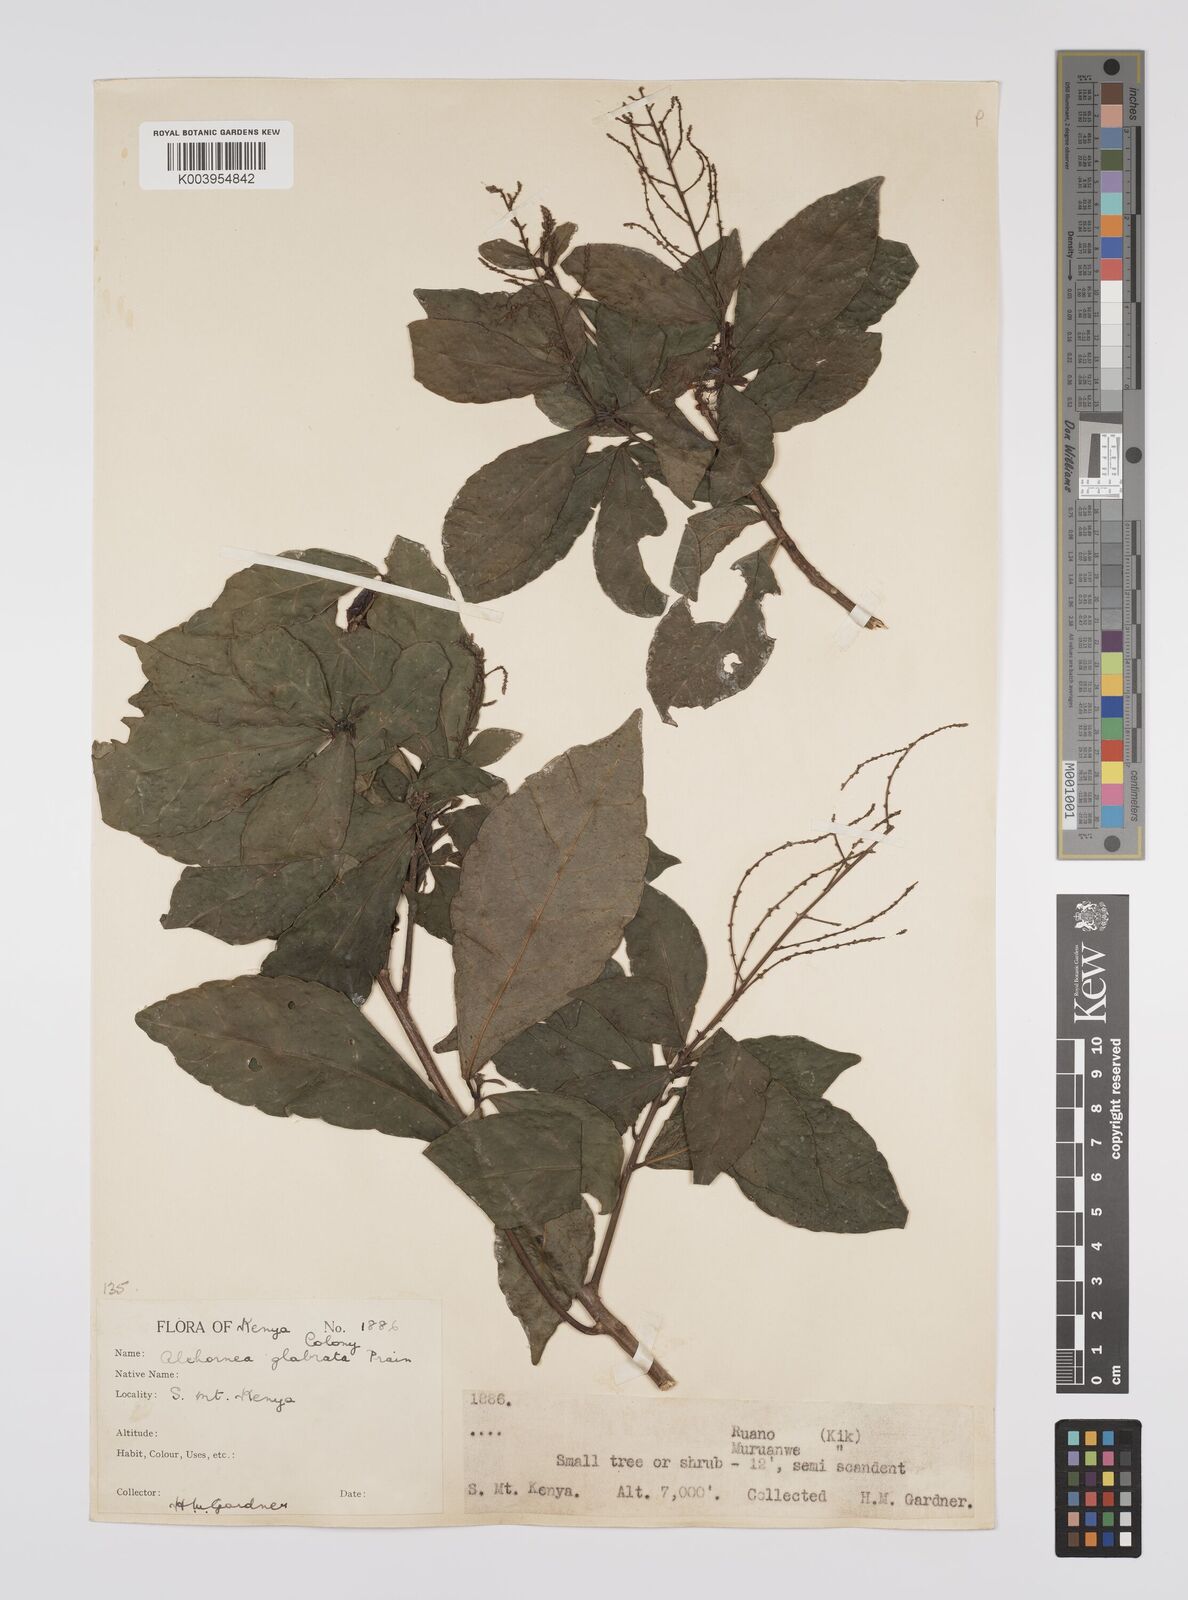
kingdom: Plantae
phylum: Tracheophyta
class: Magnoliopsida
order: Malpighiales
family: Euphorbiaceae
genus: Alchornea
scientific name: Alchornea hirtella
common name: Forest bead-string
